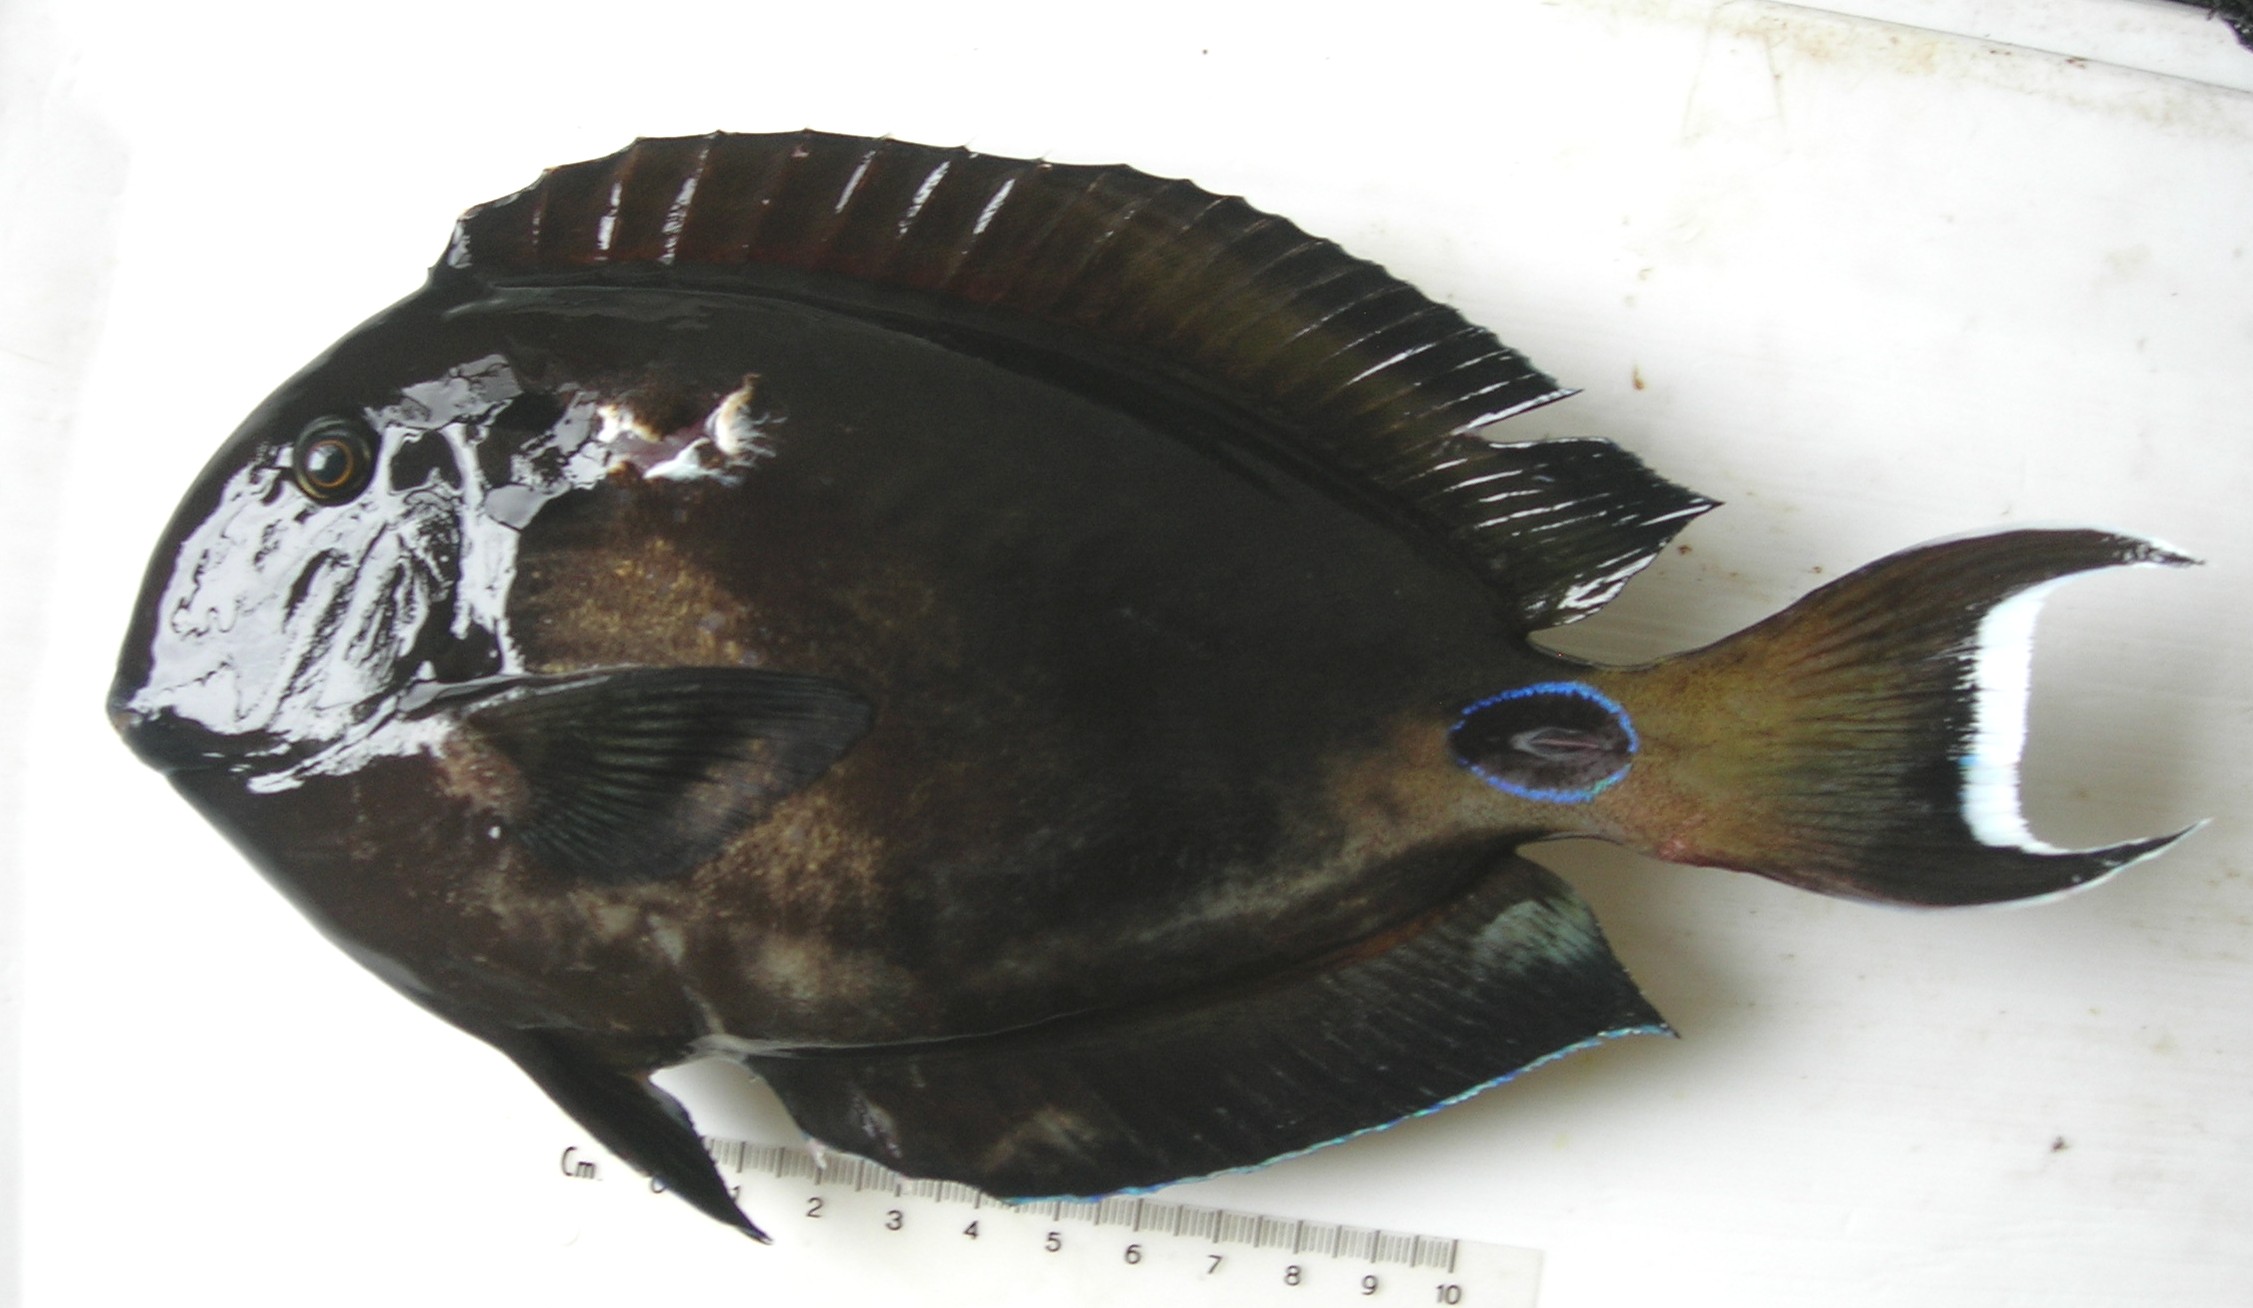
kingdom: Animalia
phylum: Chordata
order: Perciformes
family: Acanthuridae
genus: Acanthurus
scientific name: Acanthurus tennentii
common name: Doubleband surgeonfish
